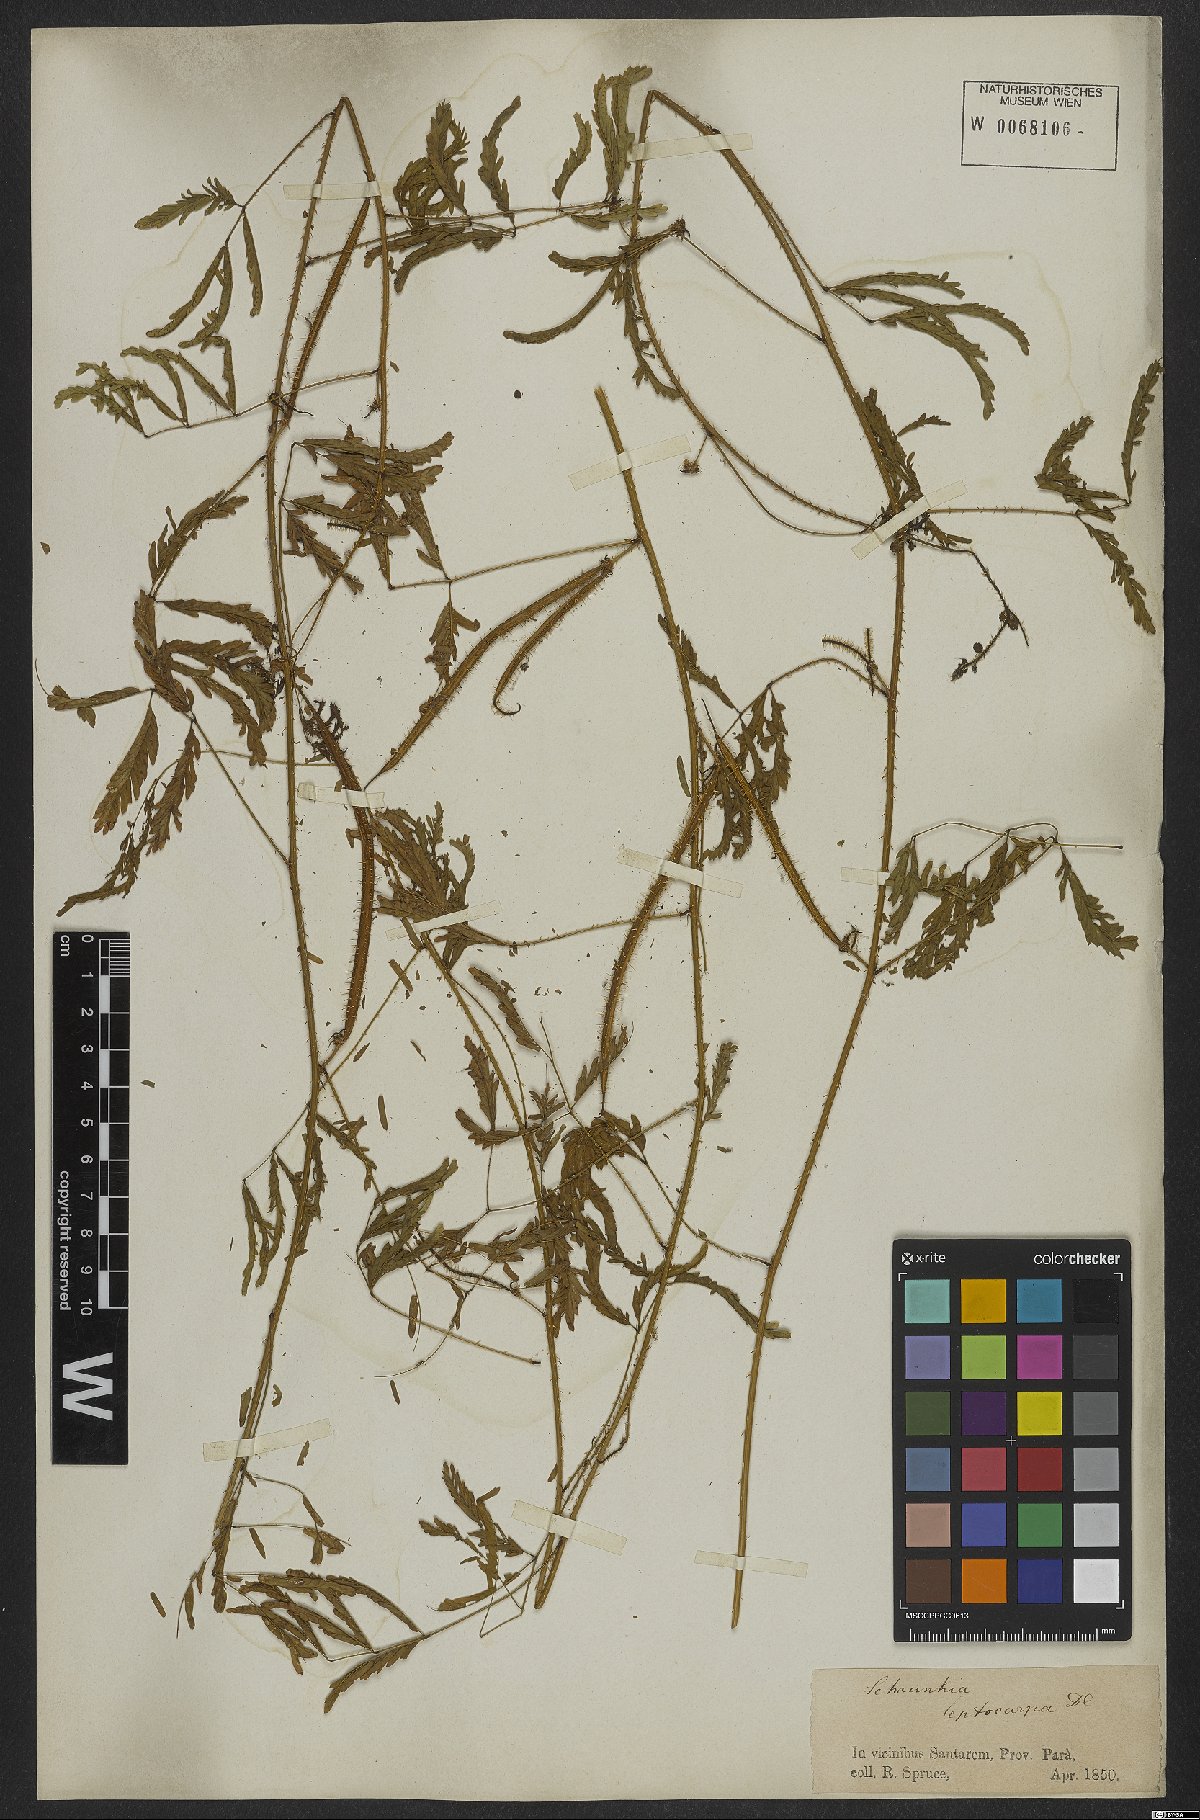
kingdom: Plantae
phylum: Tracheophyta
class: Magnoliopsida
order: Fabales
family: Fabaceae
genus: Mimosa
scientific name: Mimosa candollei
